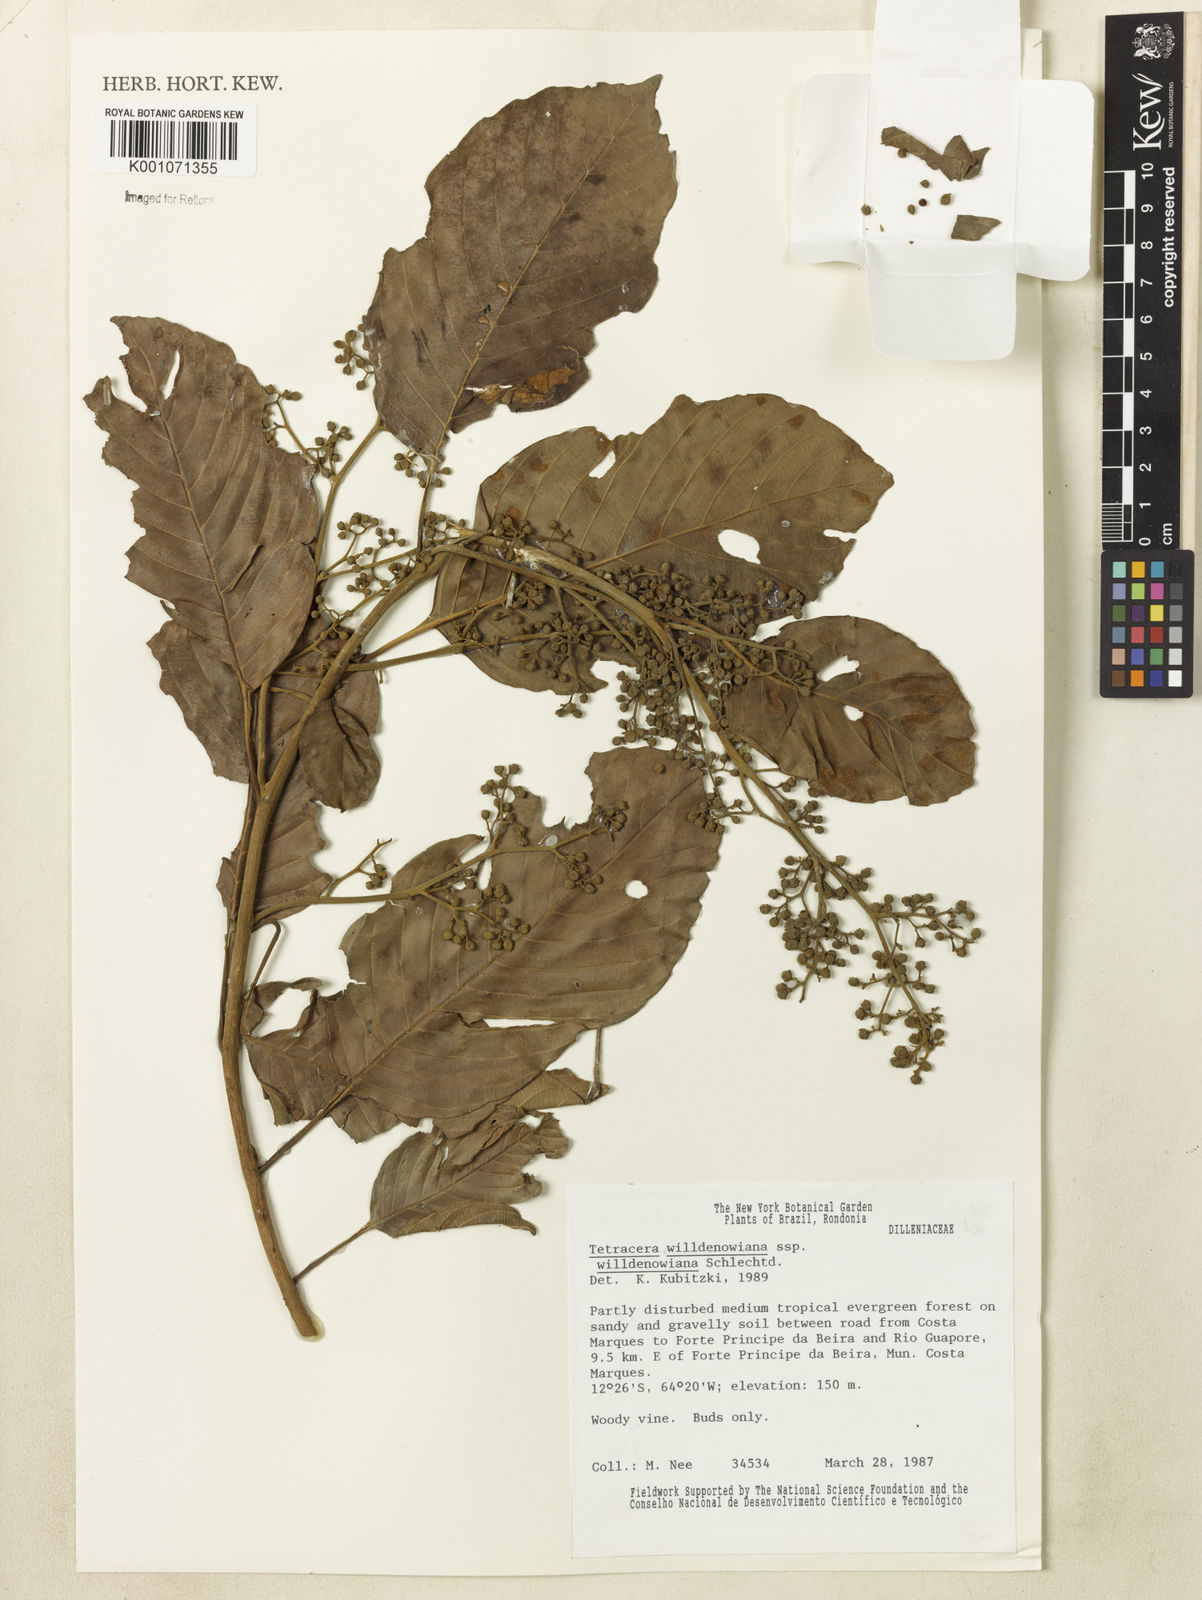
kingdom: Plantae
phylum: Tracheophyta
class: Magnoliopsida
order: Dilleniales
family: Dilleniaceae
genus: Tetracera
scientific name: Tetracera willdenowiana
